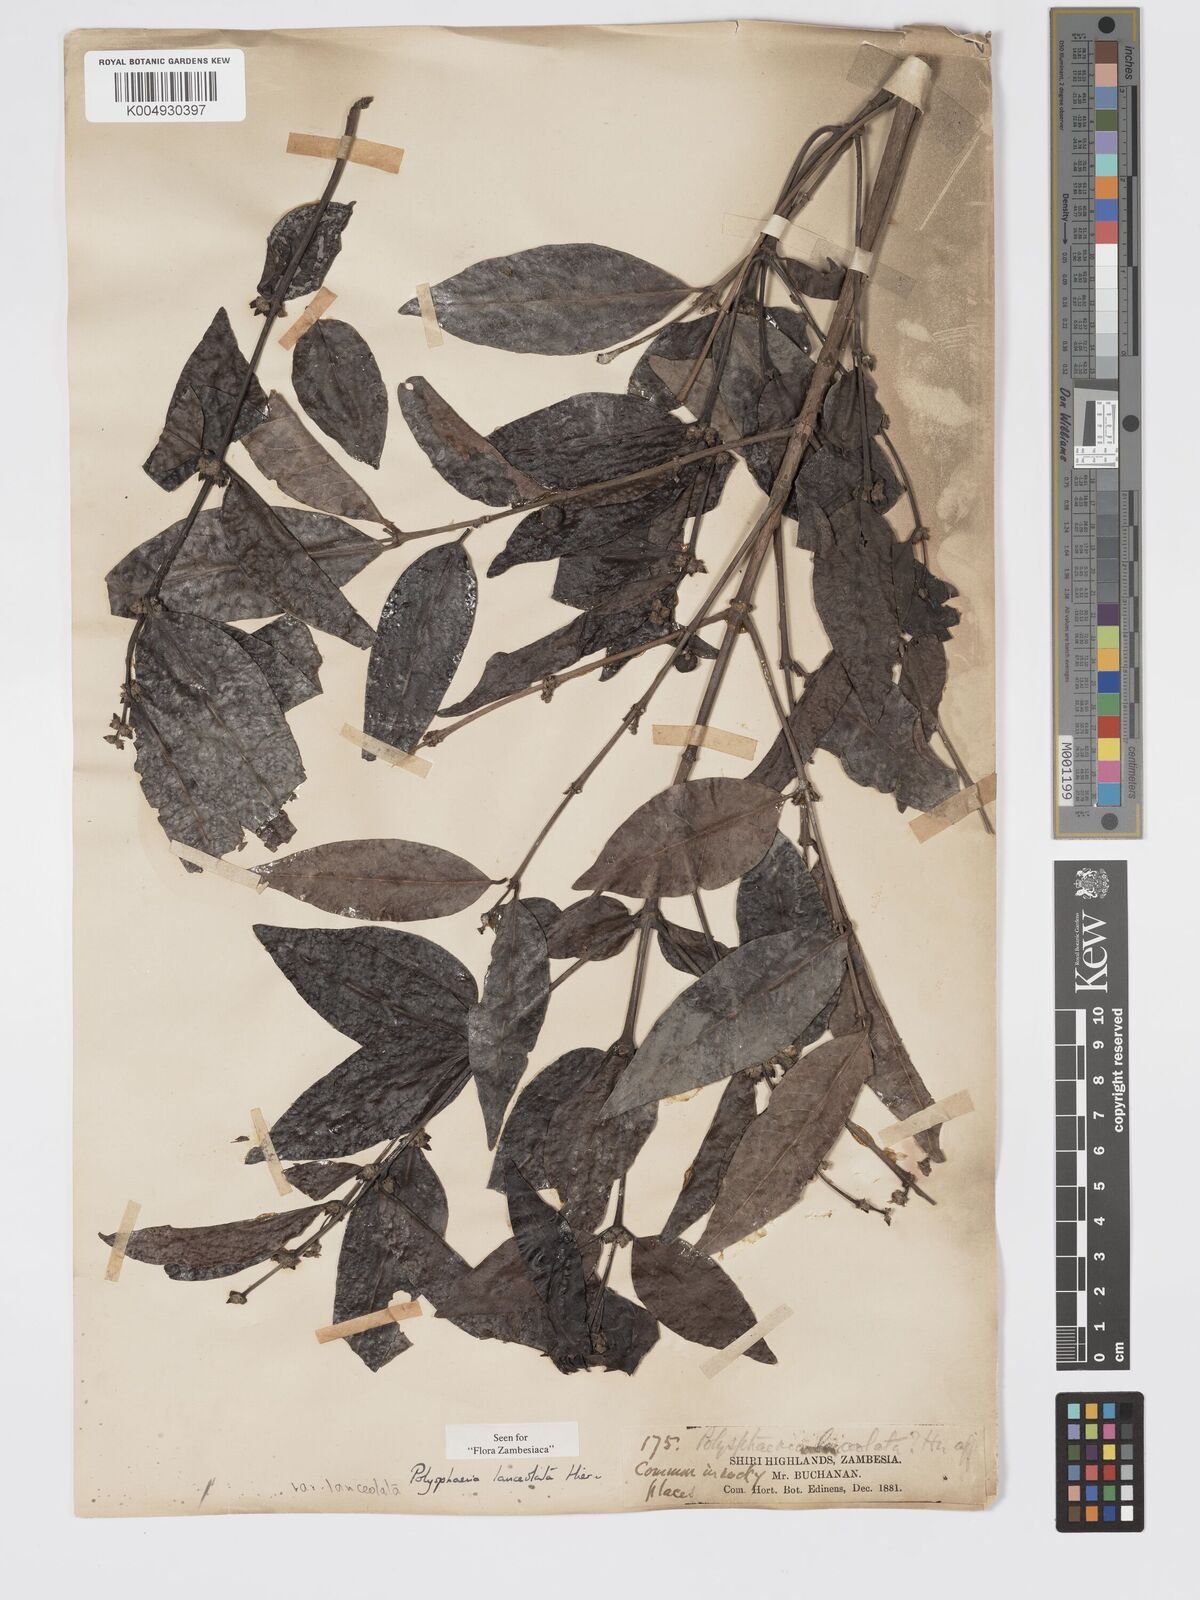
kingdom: Plantae
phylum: Tracheophyta
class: Magnoliopsida
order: Gentianales
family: Rubiaceae
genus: Polysphaeria
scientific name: Polysphaeria lanceolata
